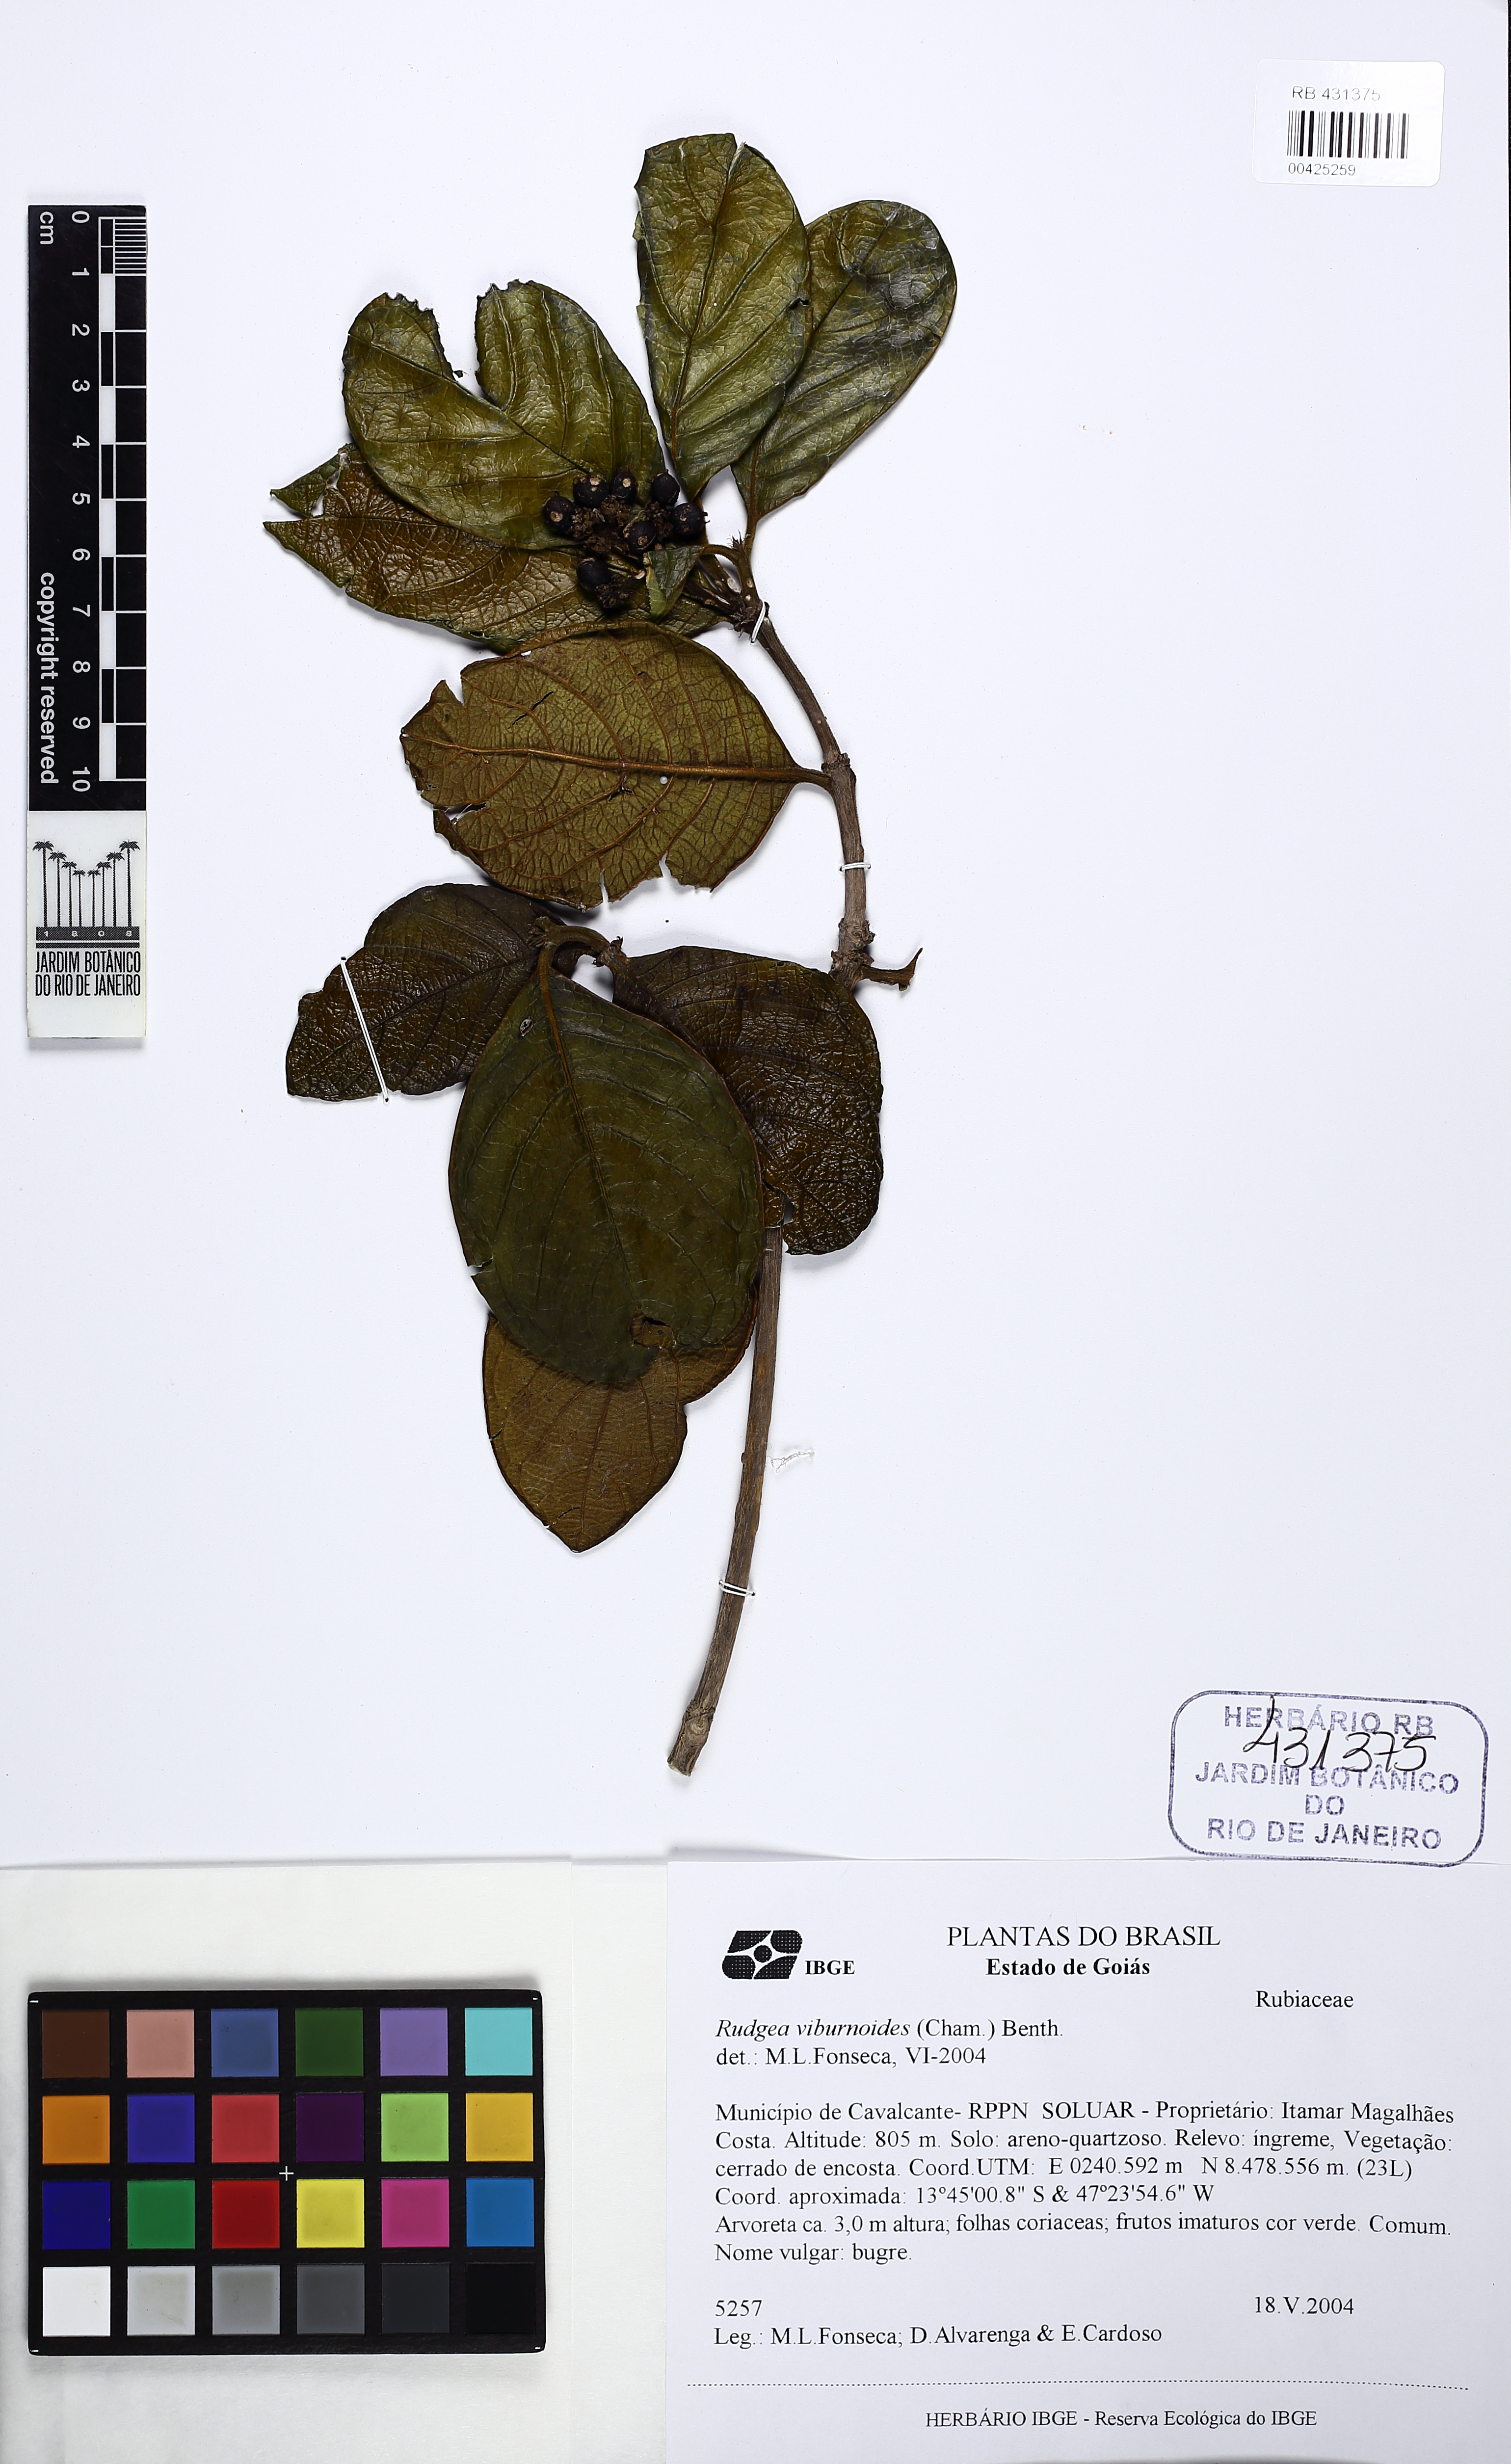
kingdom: Plantae
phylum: Tracheophyta
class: Magnoliopsida
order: Gentianales
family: Rubiaceae
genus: Rudgea
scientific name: Rudgea viburnoides
